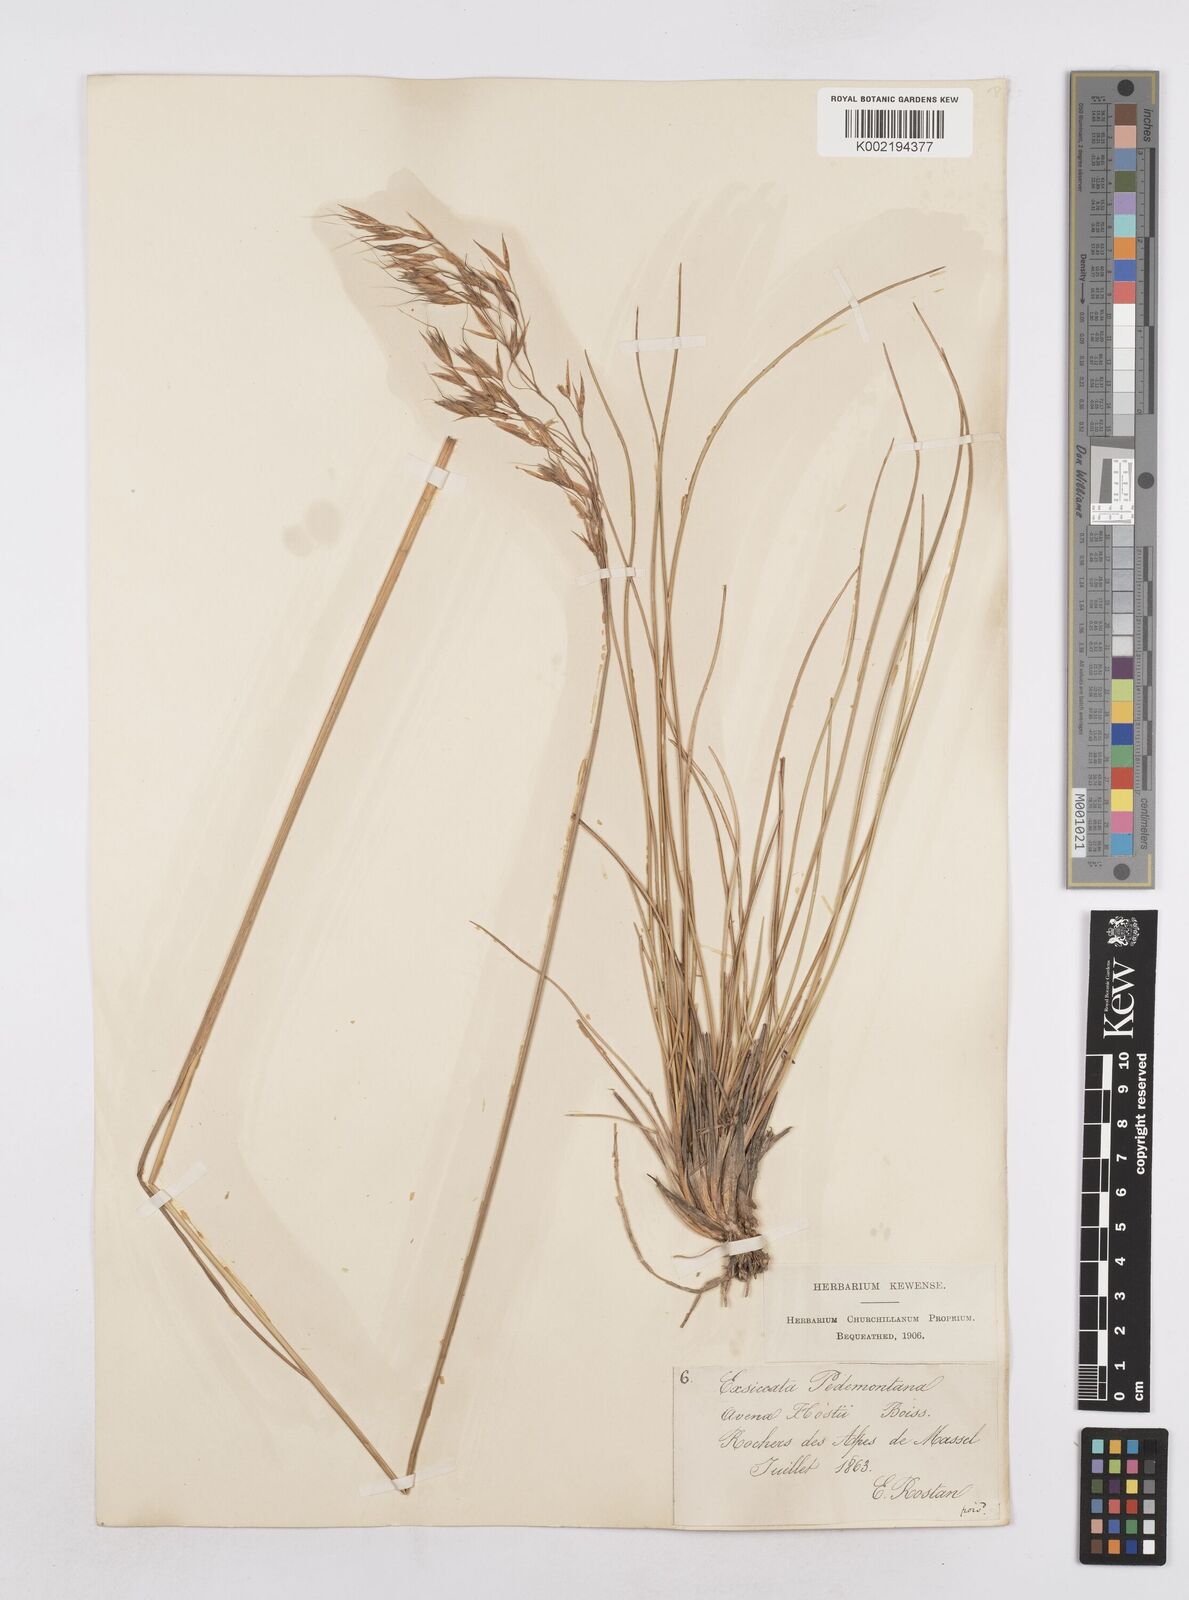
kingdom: Plantae
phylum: Tracheophyta
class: Liliopsida
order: Poales
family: Poaceae
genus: Helictotrichon
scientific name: Helictotrichon parlatorei
